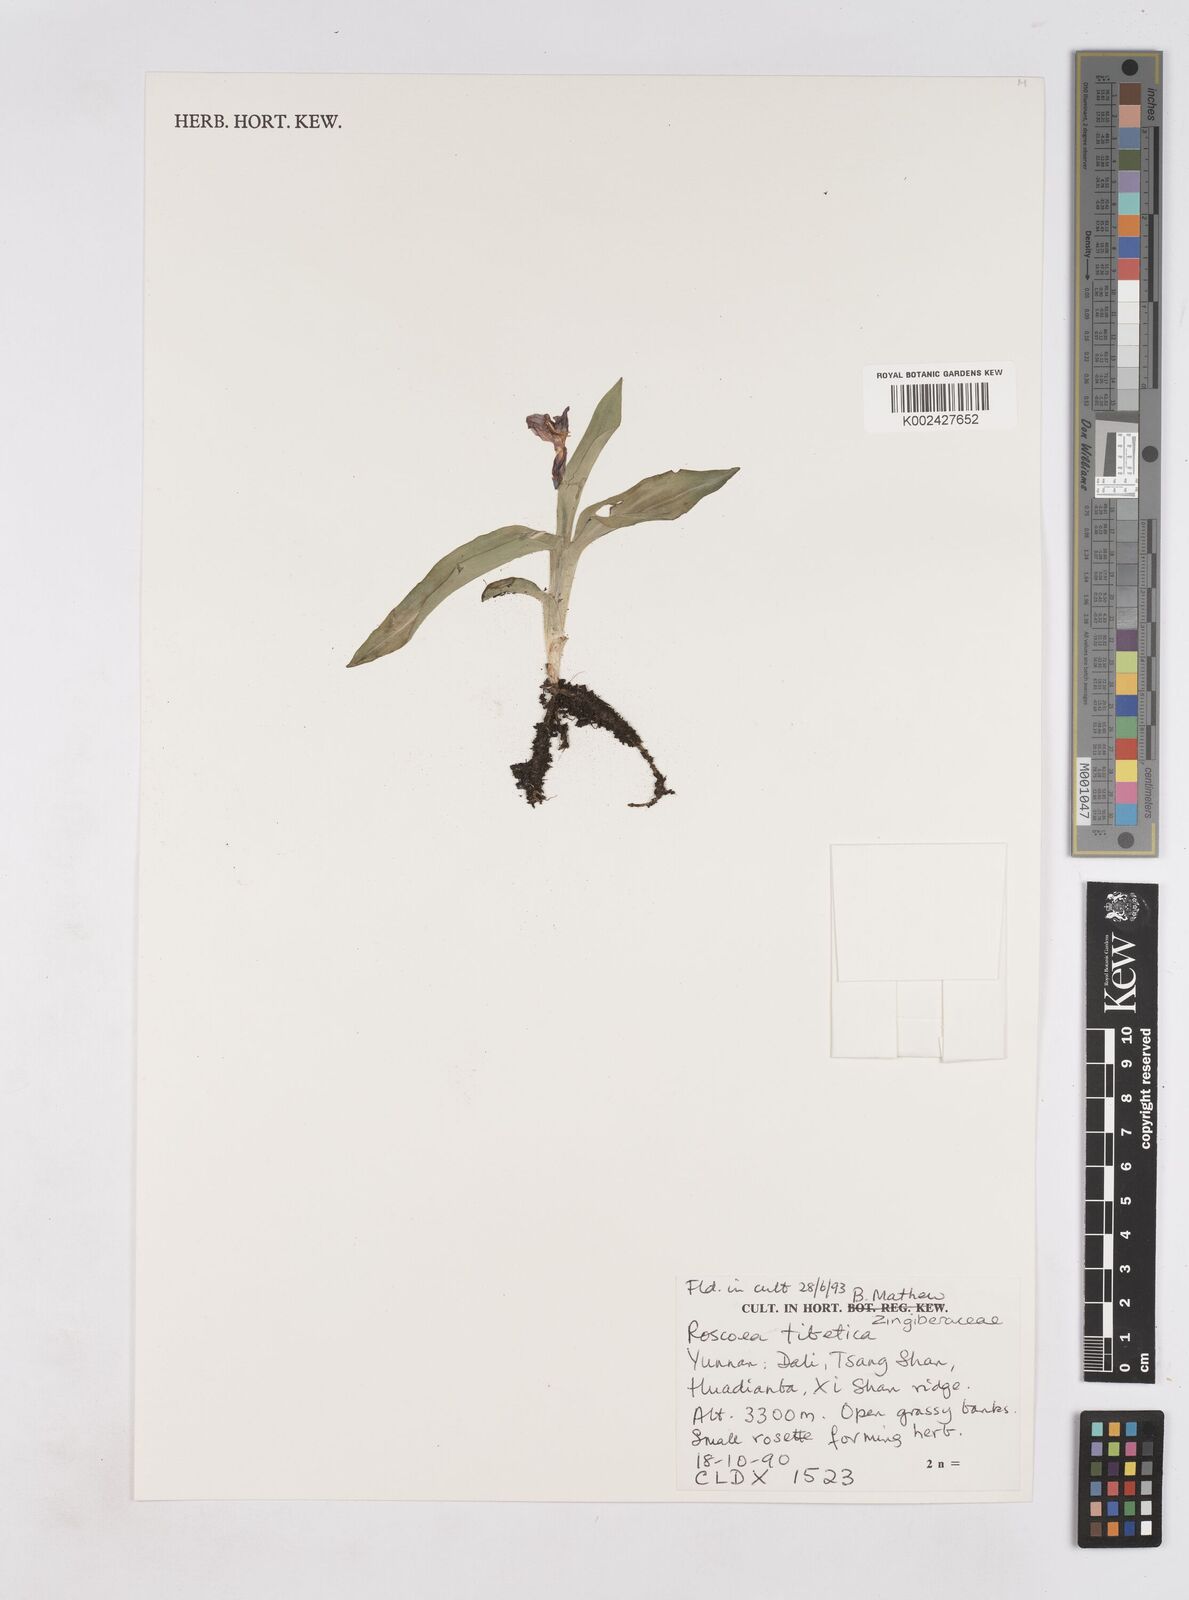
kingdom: Plantae
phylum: Tracheophyta
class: Liliopsida
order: Zingiberales
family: Zingiberaceae
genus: Roscoea
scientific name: Roscoea tibetica
